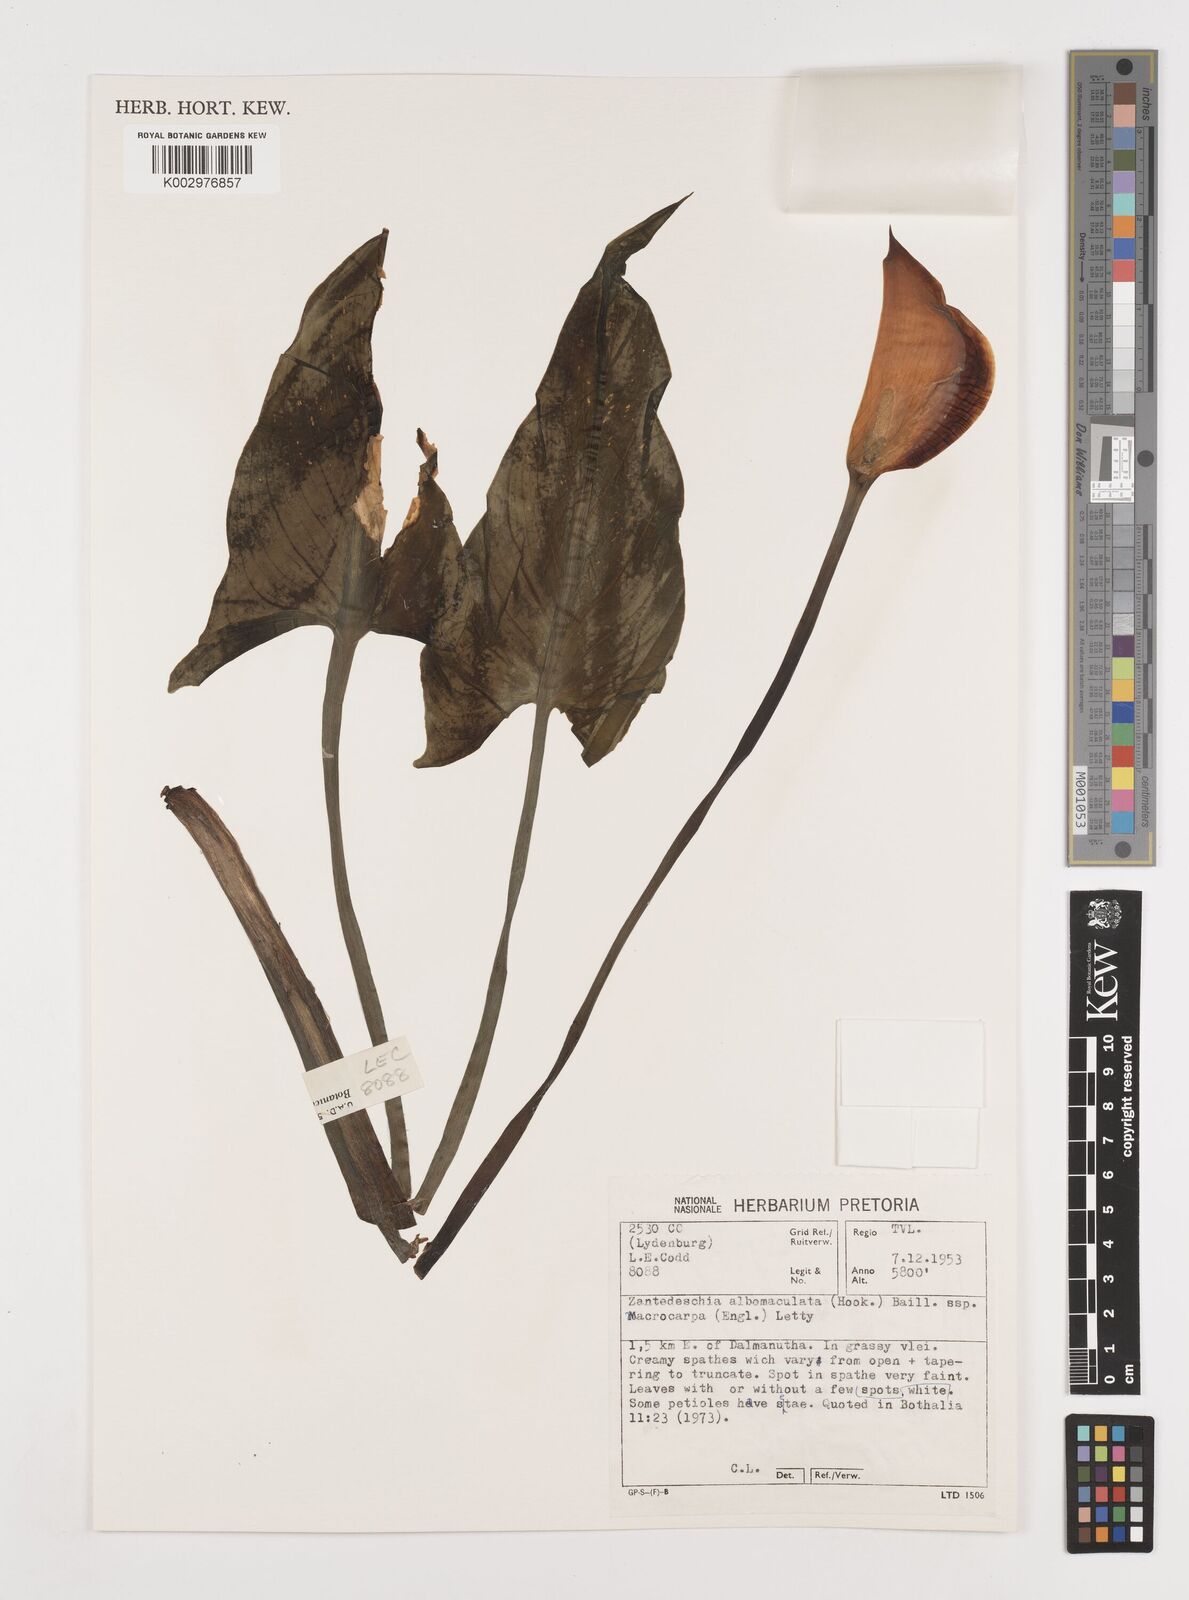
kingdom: Plantae
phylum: Tracheophyta
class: Liliopsida
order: Alismatales
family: Araceae
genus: Zantedeschia
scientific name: Zantedeschia albomaculata
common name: Spotted calla lily
